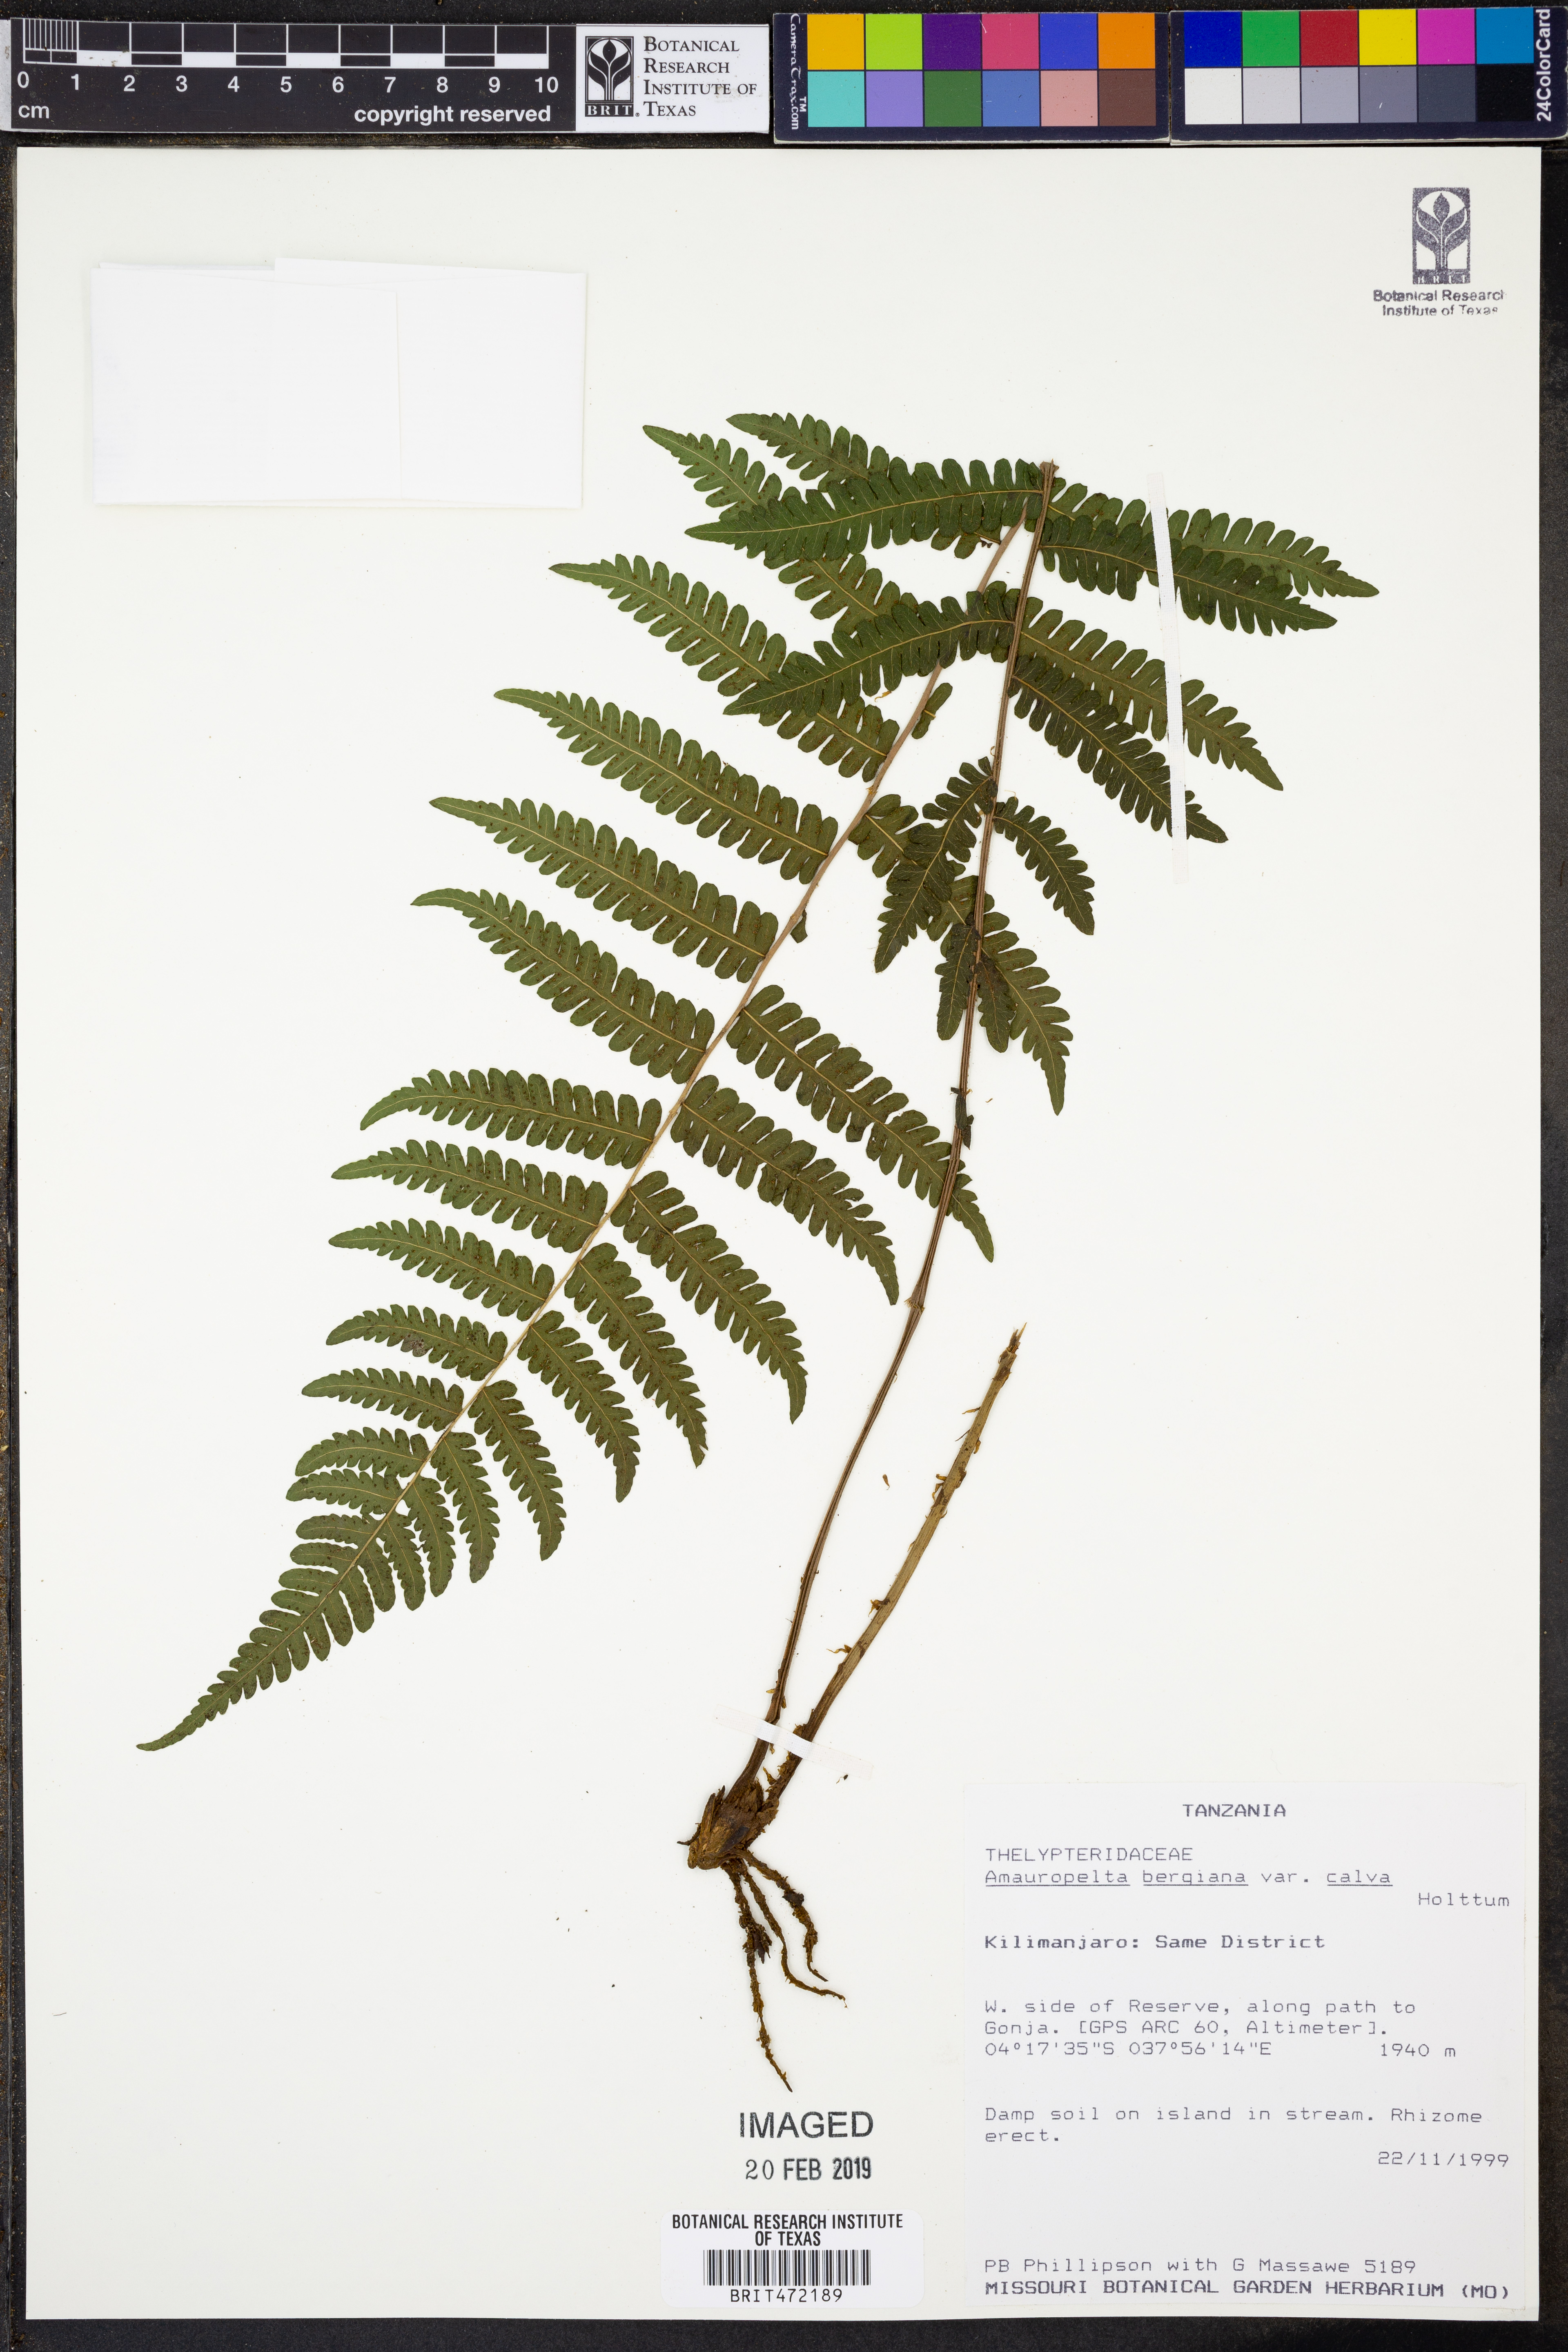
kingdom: Plantae
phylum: Tracheophyta
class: Polypodiopsida
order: Polypodiales
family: Thelypteridaceae
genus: Amauropelta
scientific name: Amauropelta bergiana
